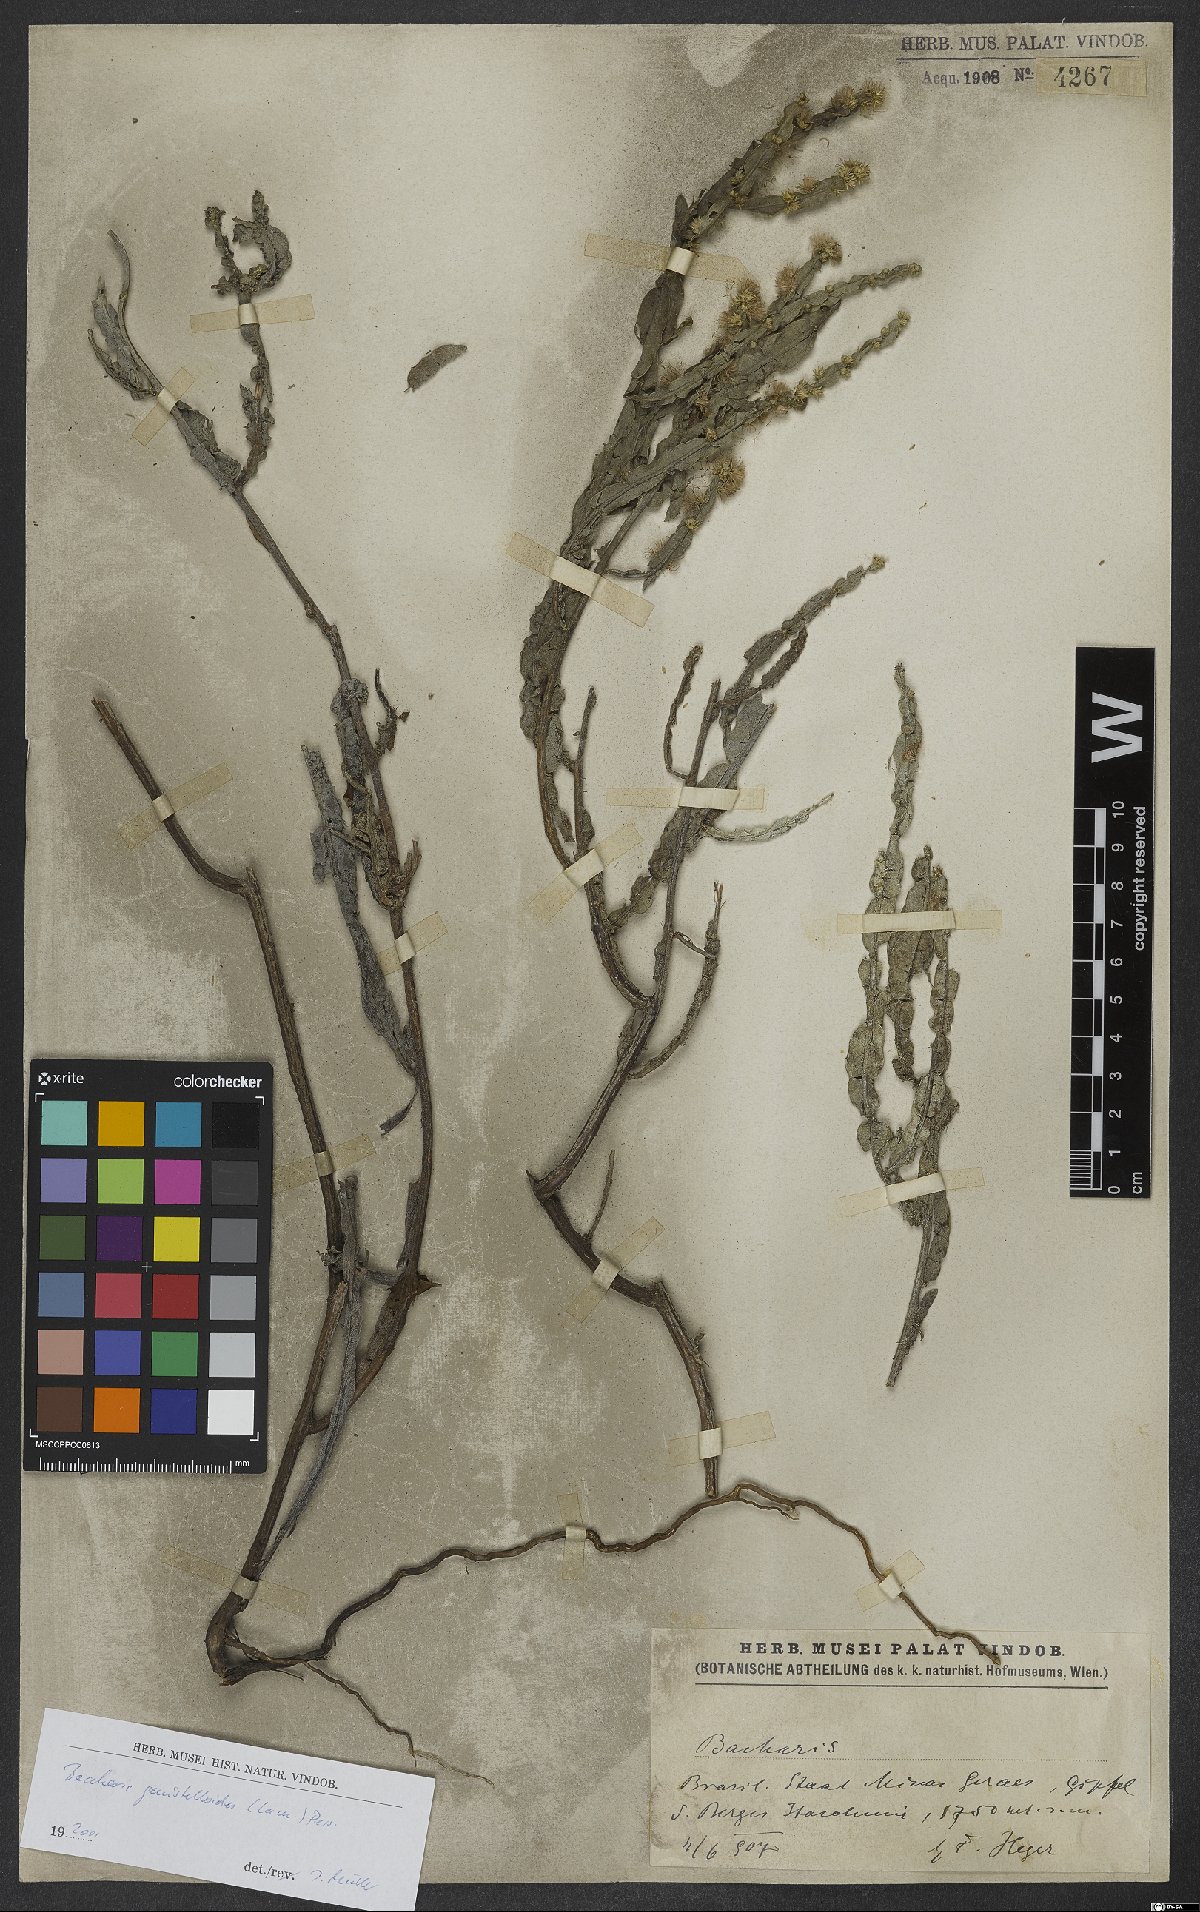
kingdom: Plantae
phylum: Tracheophyta
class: Magnoliopsida
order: Asterales
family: Asteraceae
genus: Baccharis
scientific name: Baccharis genistelloides
